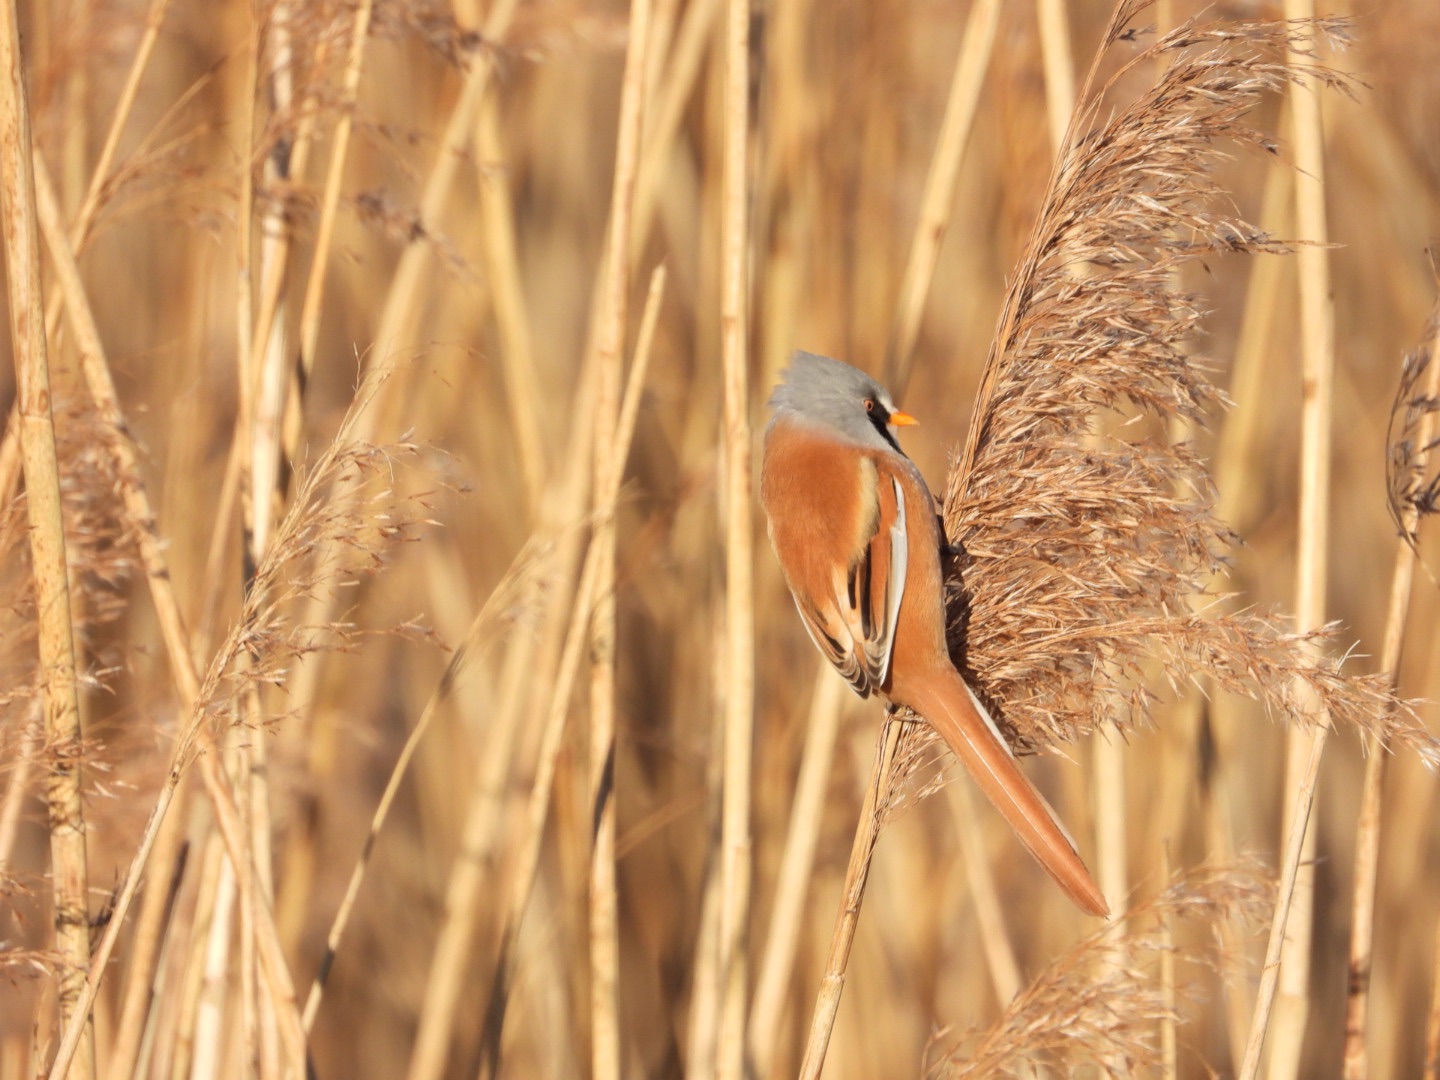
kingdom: Animalia
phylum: Chordata
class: Aves
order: Passeriformes
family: Panuridae
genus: Panurus
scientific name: Panurus biarmicus
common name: Skægmejse
